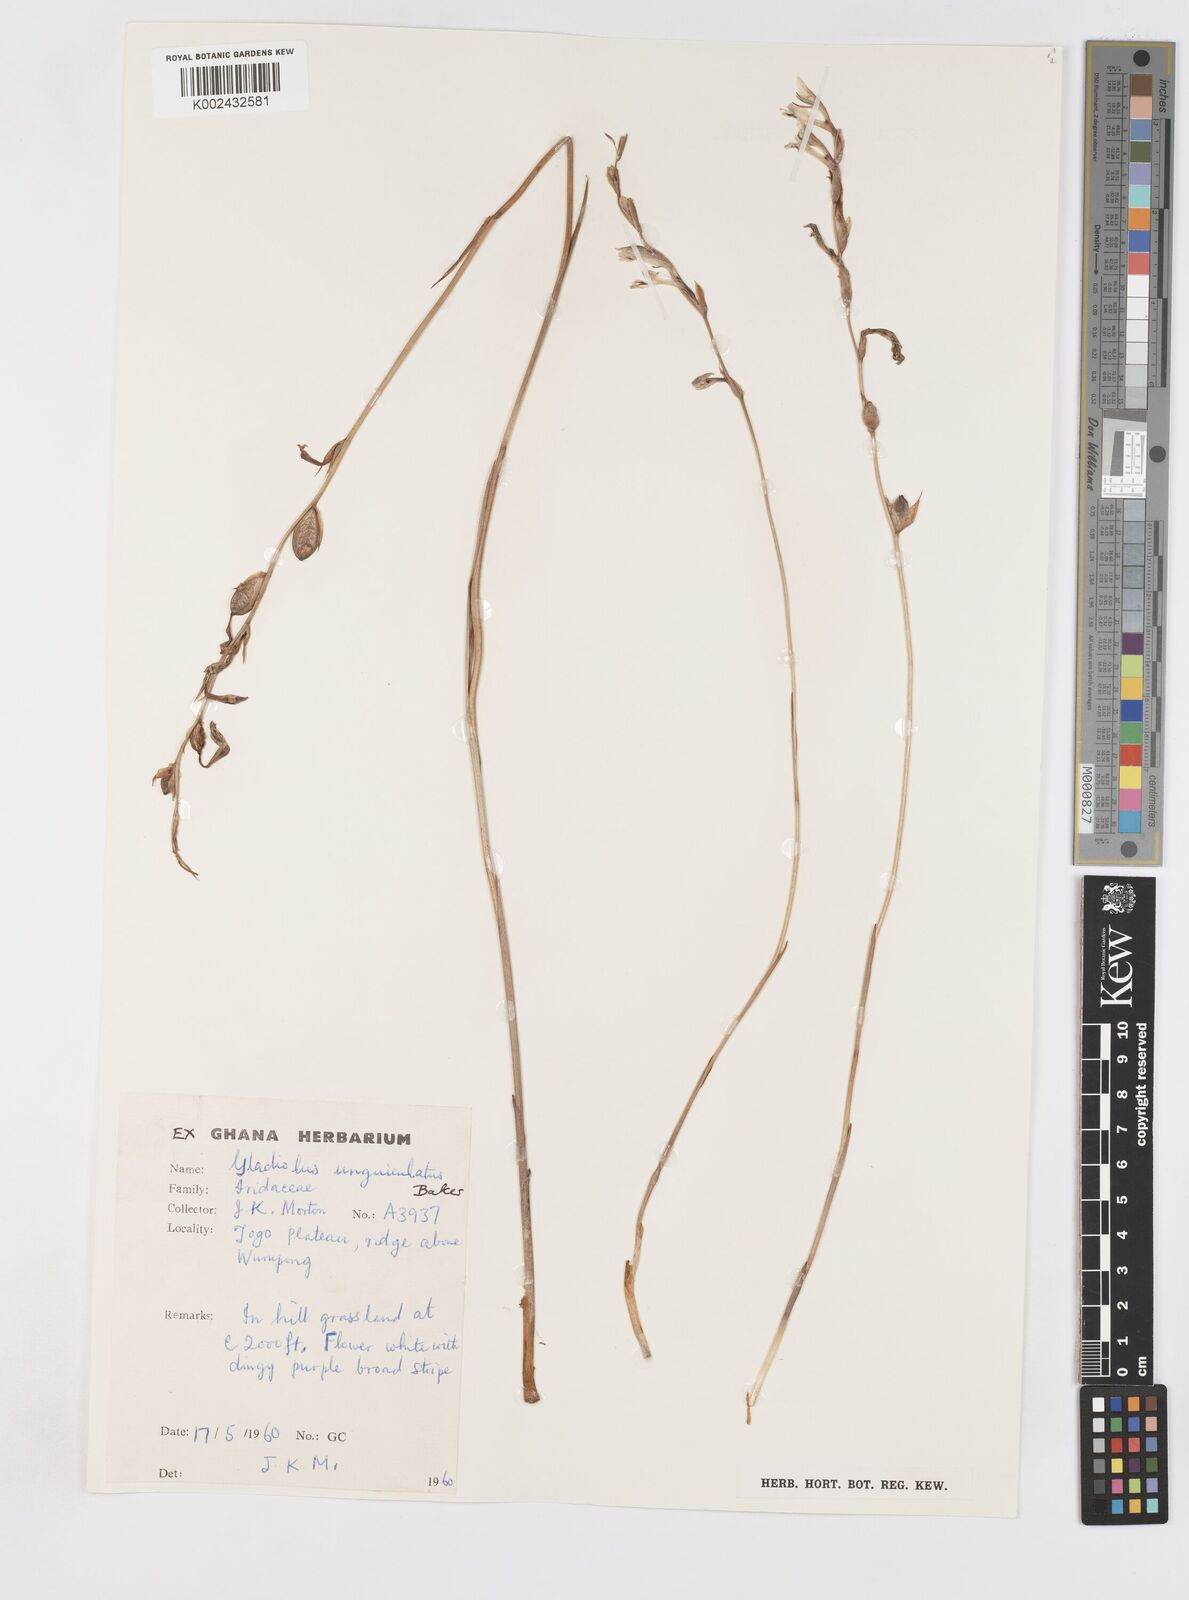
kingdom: Plantae
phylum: Tracheophyta
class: Liliopsida
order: Asparagales
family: Iridaceae
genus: Gladiolus
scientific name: Gladiolus unguiculatus
